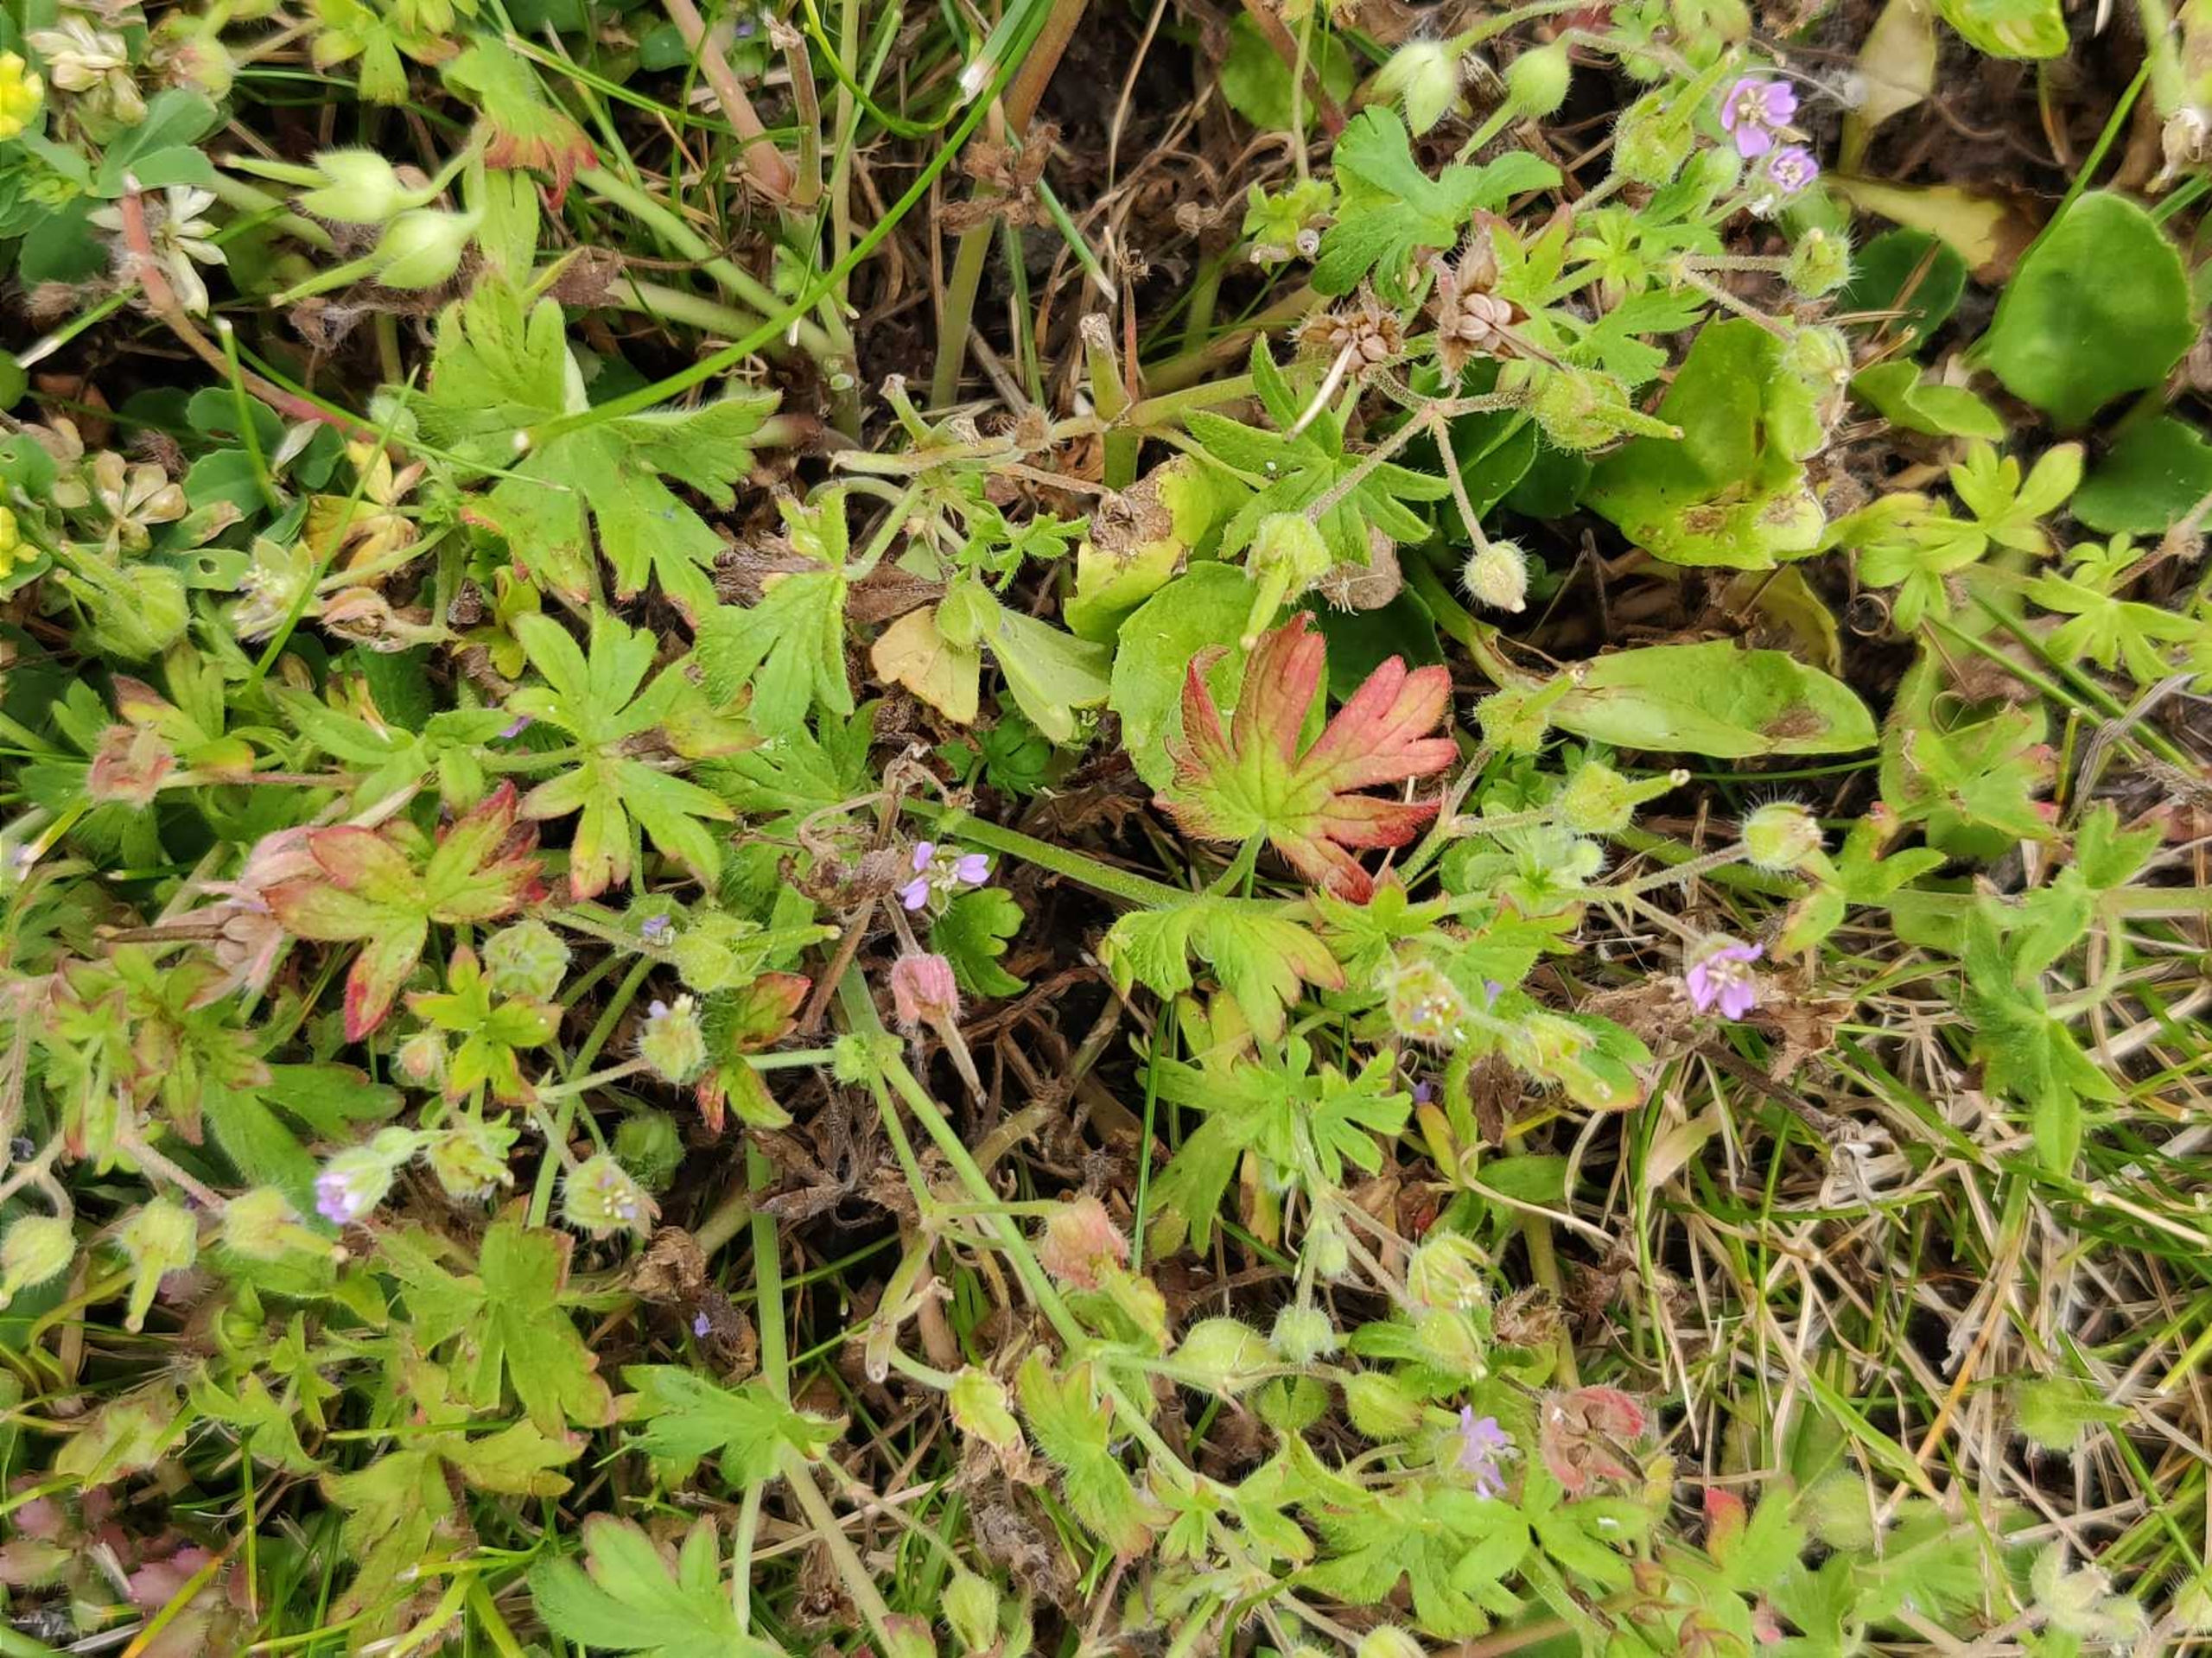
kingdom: Plantae
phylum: Tracheophyta
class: Magnoliopsida
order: Geraniales
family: Geraniaceae
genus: Geranium
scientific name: Geranium pusillum
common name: Liden storkenæb
